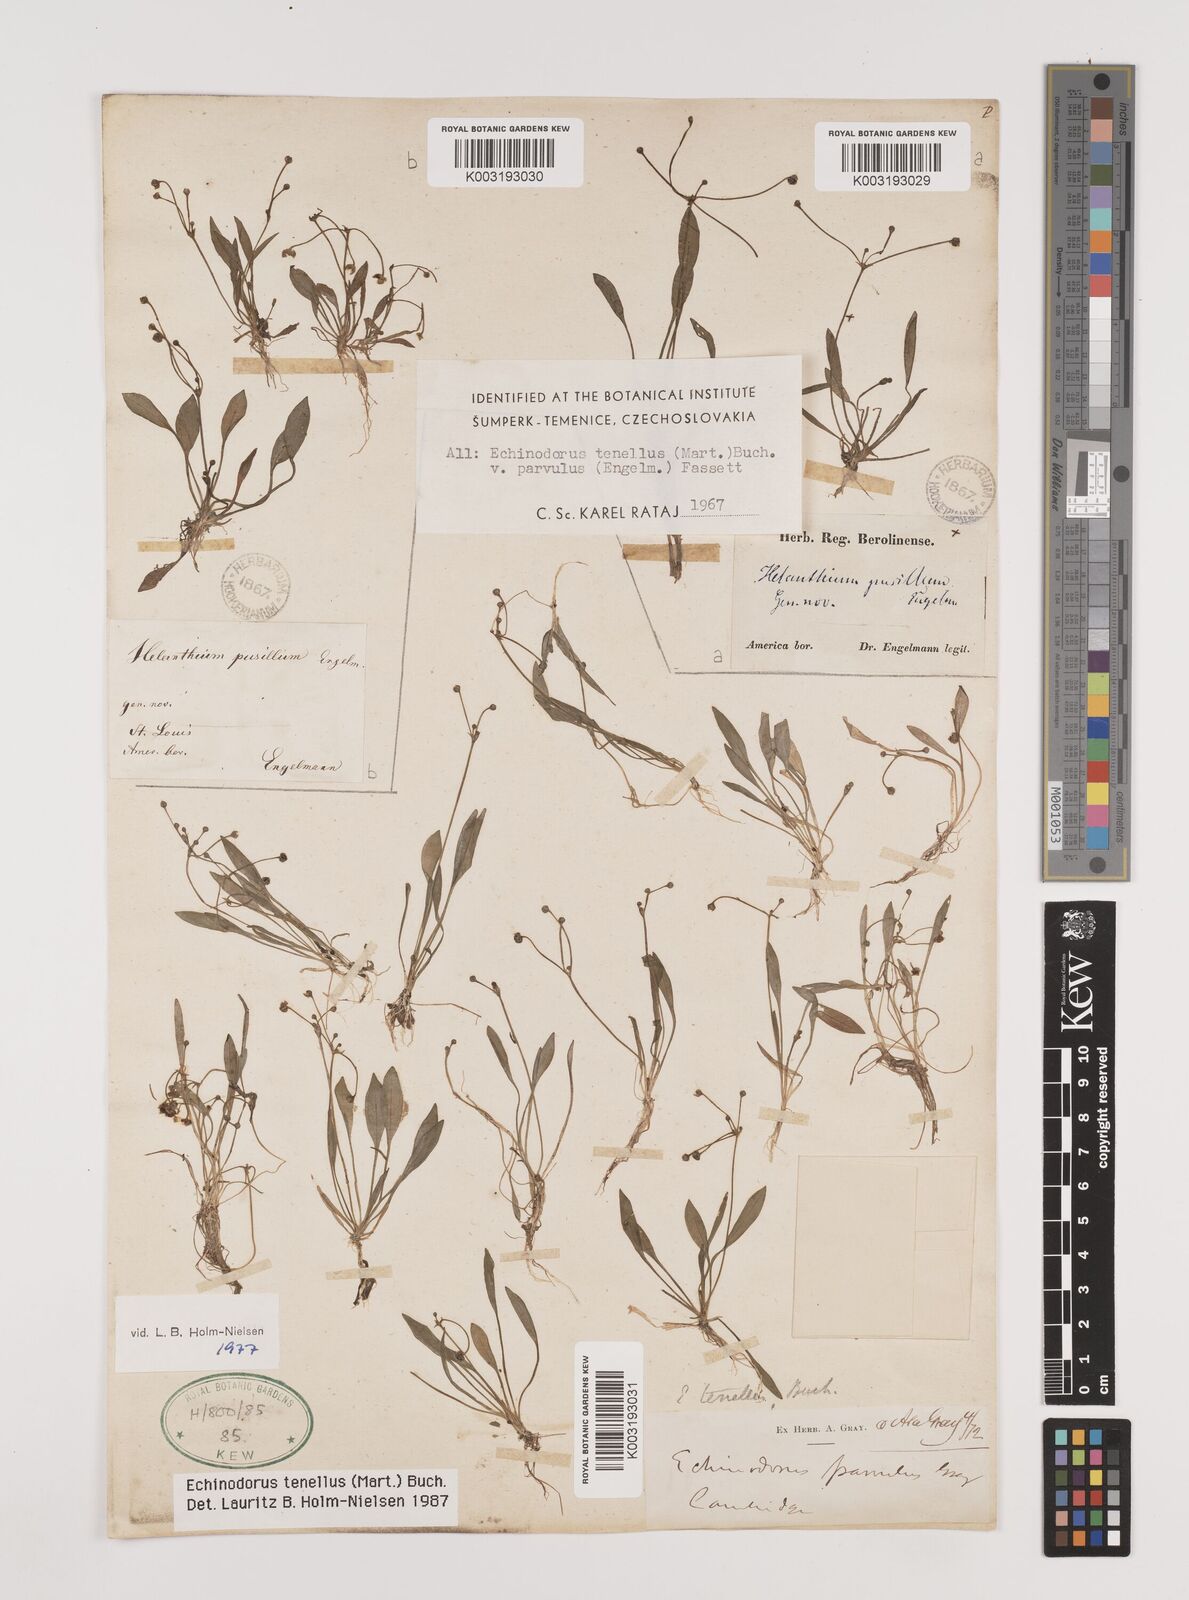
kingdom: Plantae
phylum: Tracheophyta
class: Liliopsida
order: Alismatales
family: Alismataceae
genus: Helanthium
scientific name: Helanthium tenellum
